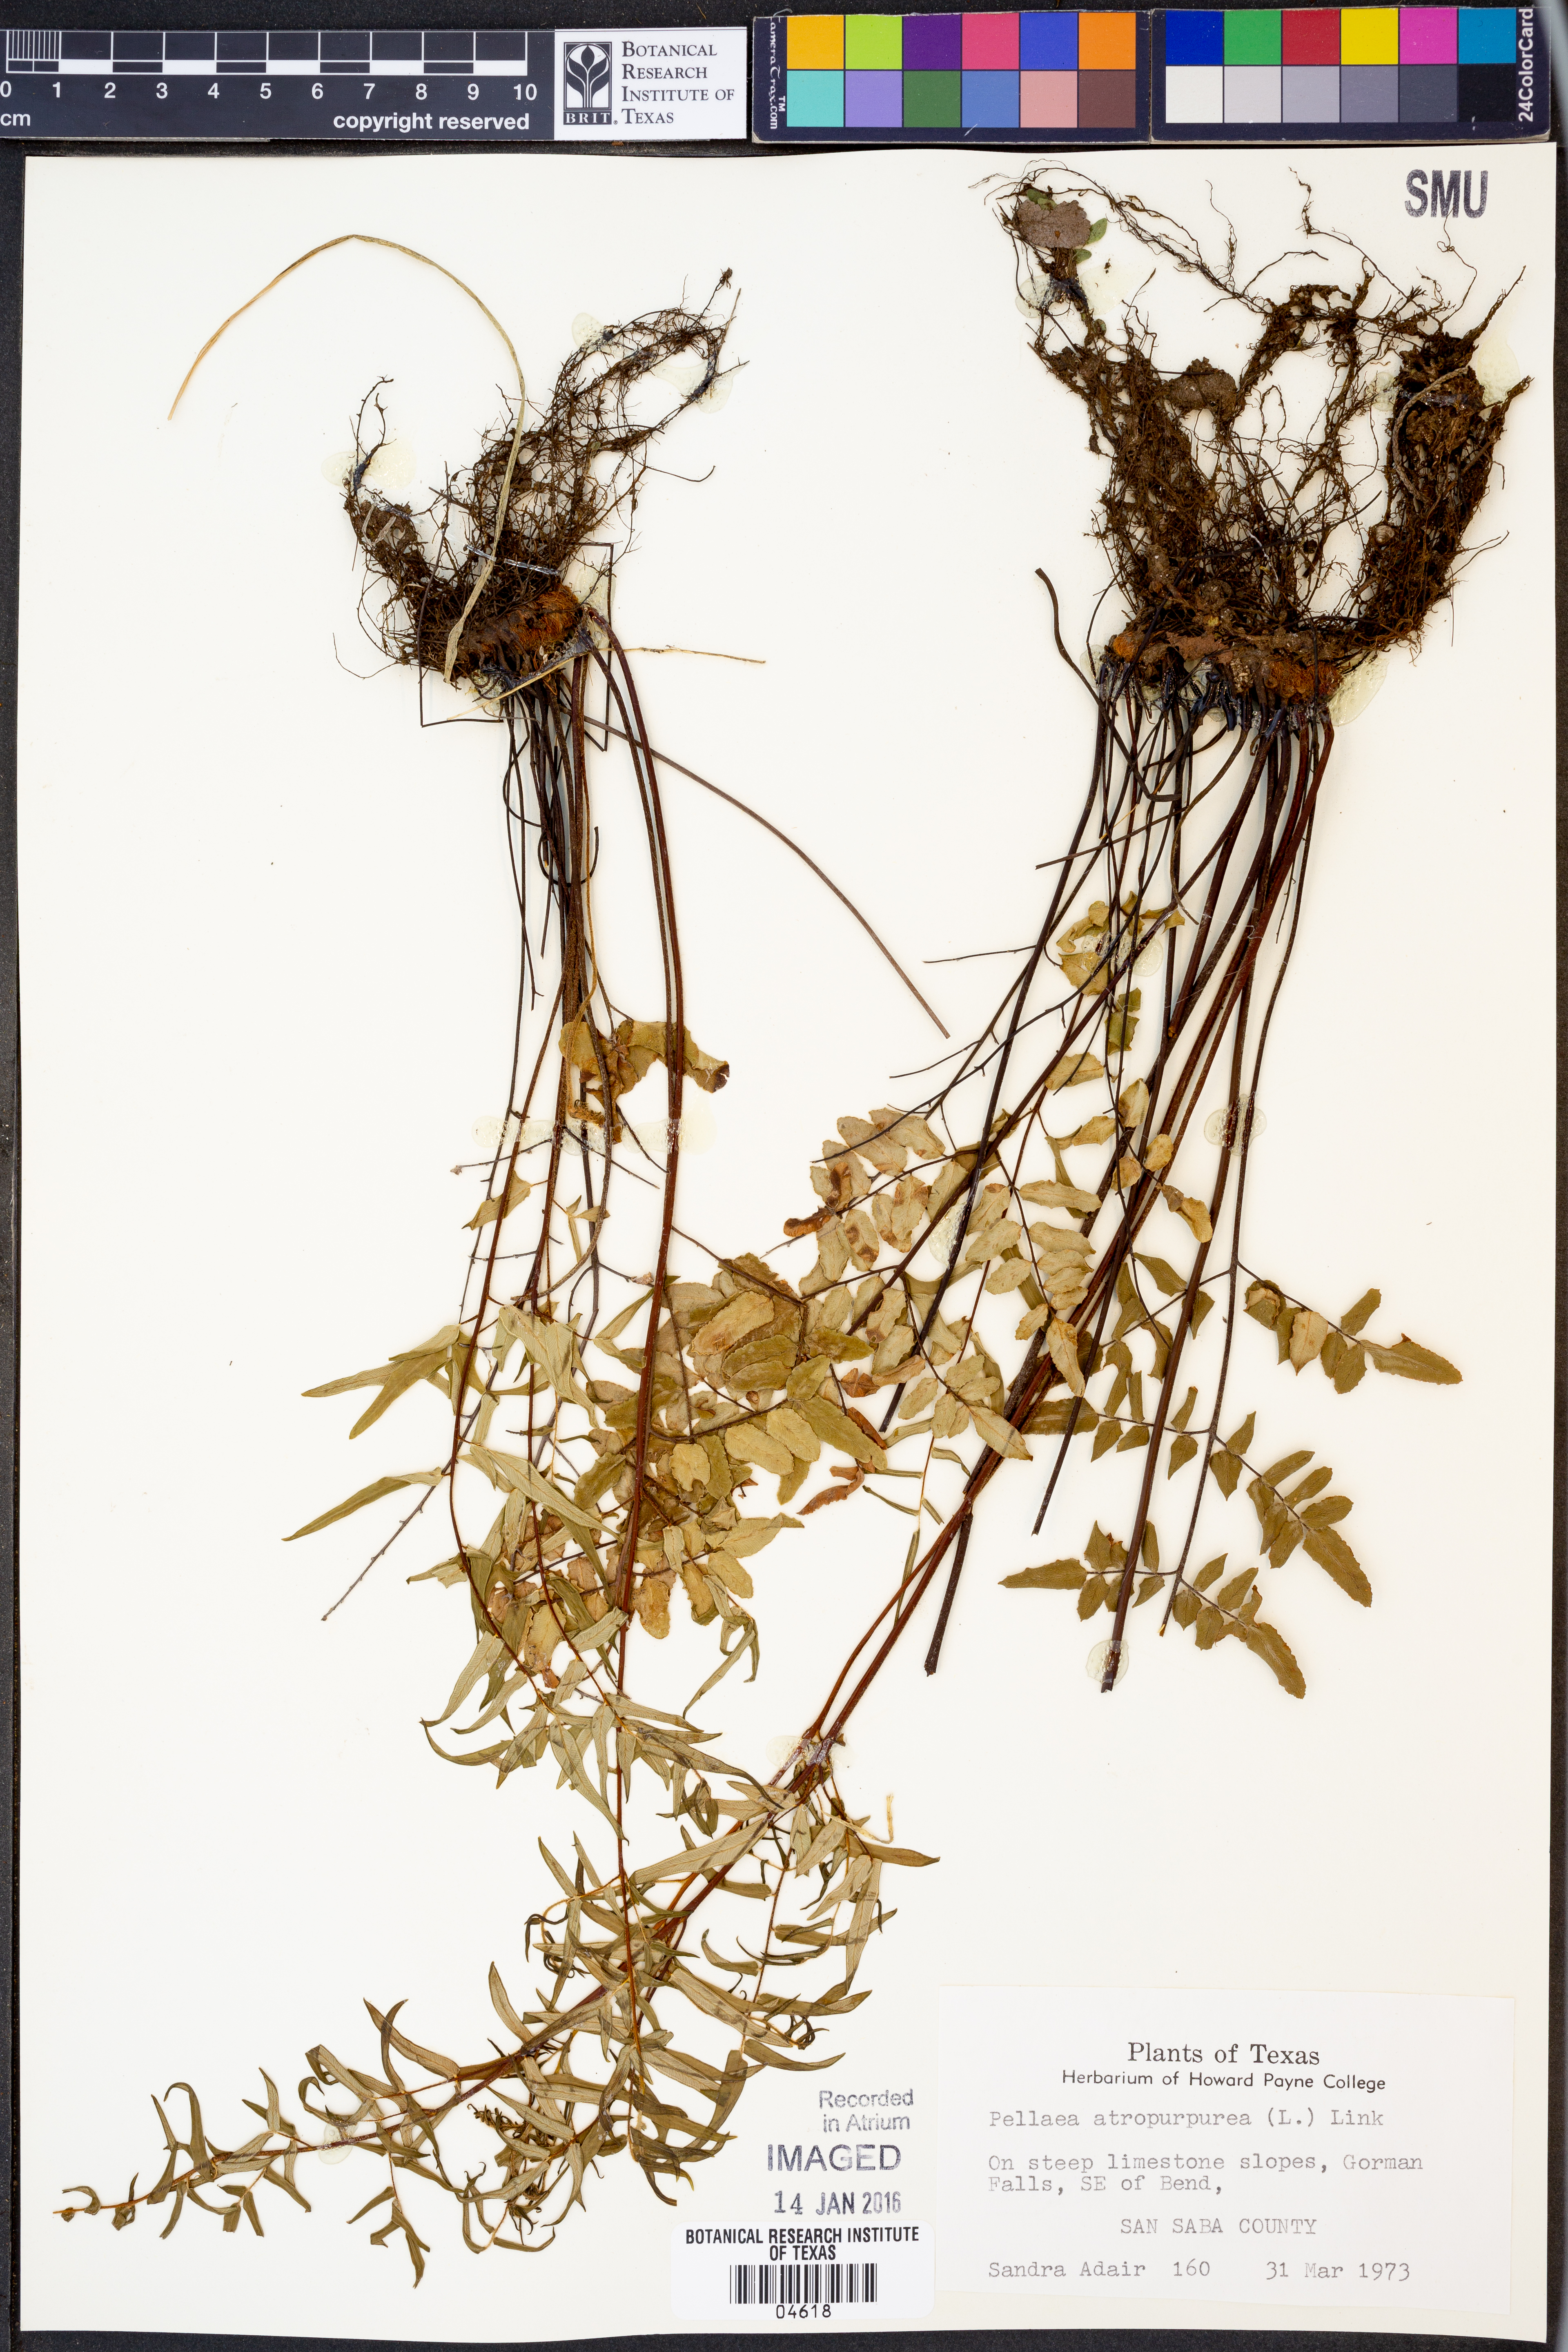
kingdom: Plantae
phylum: Tracheophyta
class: Polypodiopsida
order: Polypodiales
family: Pteridaceae
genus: Pellaea
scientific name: Pellaea atropurpurea
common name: Hairy cliffbrake
